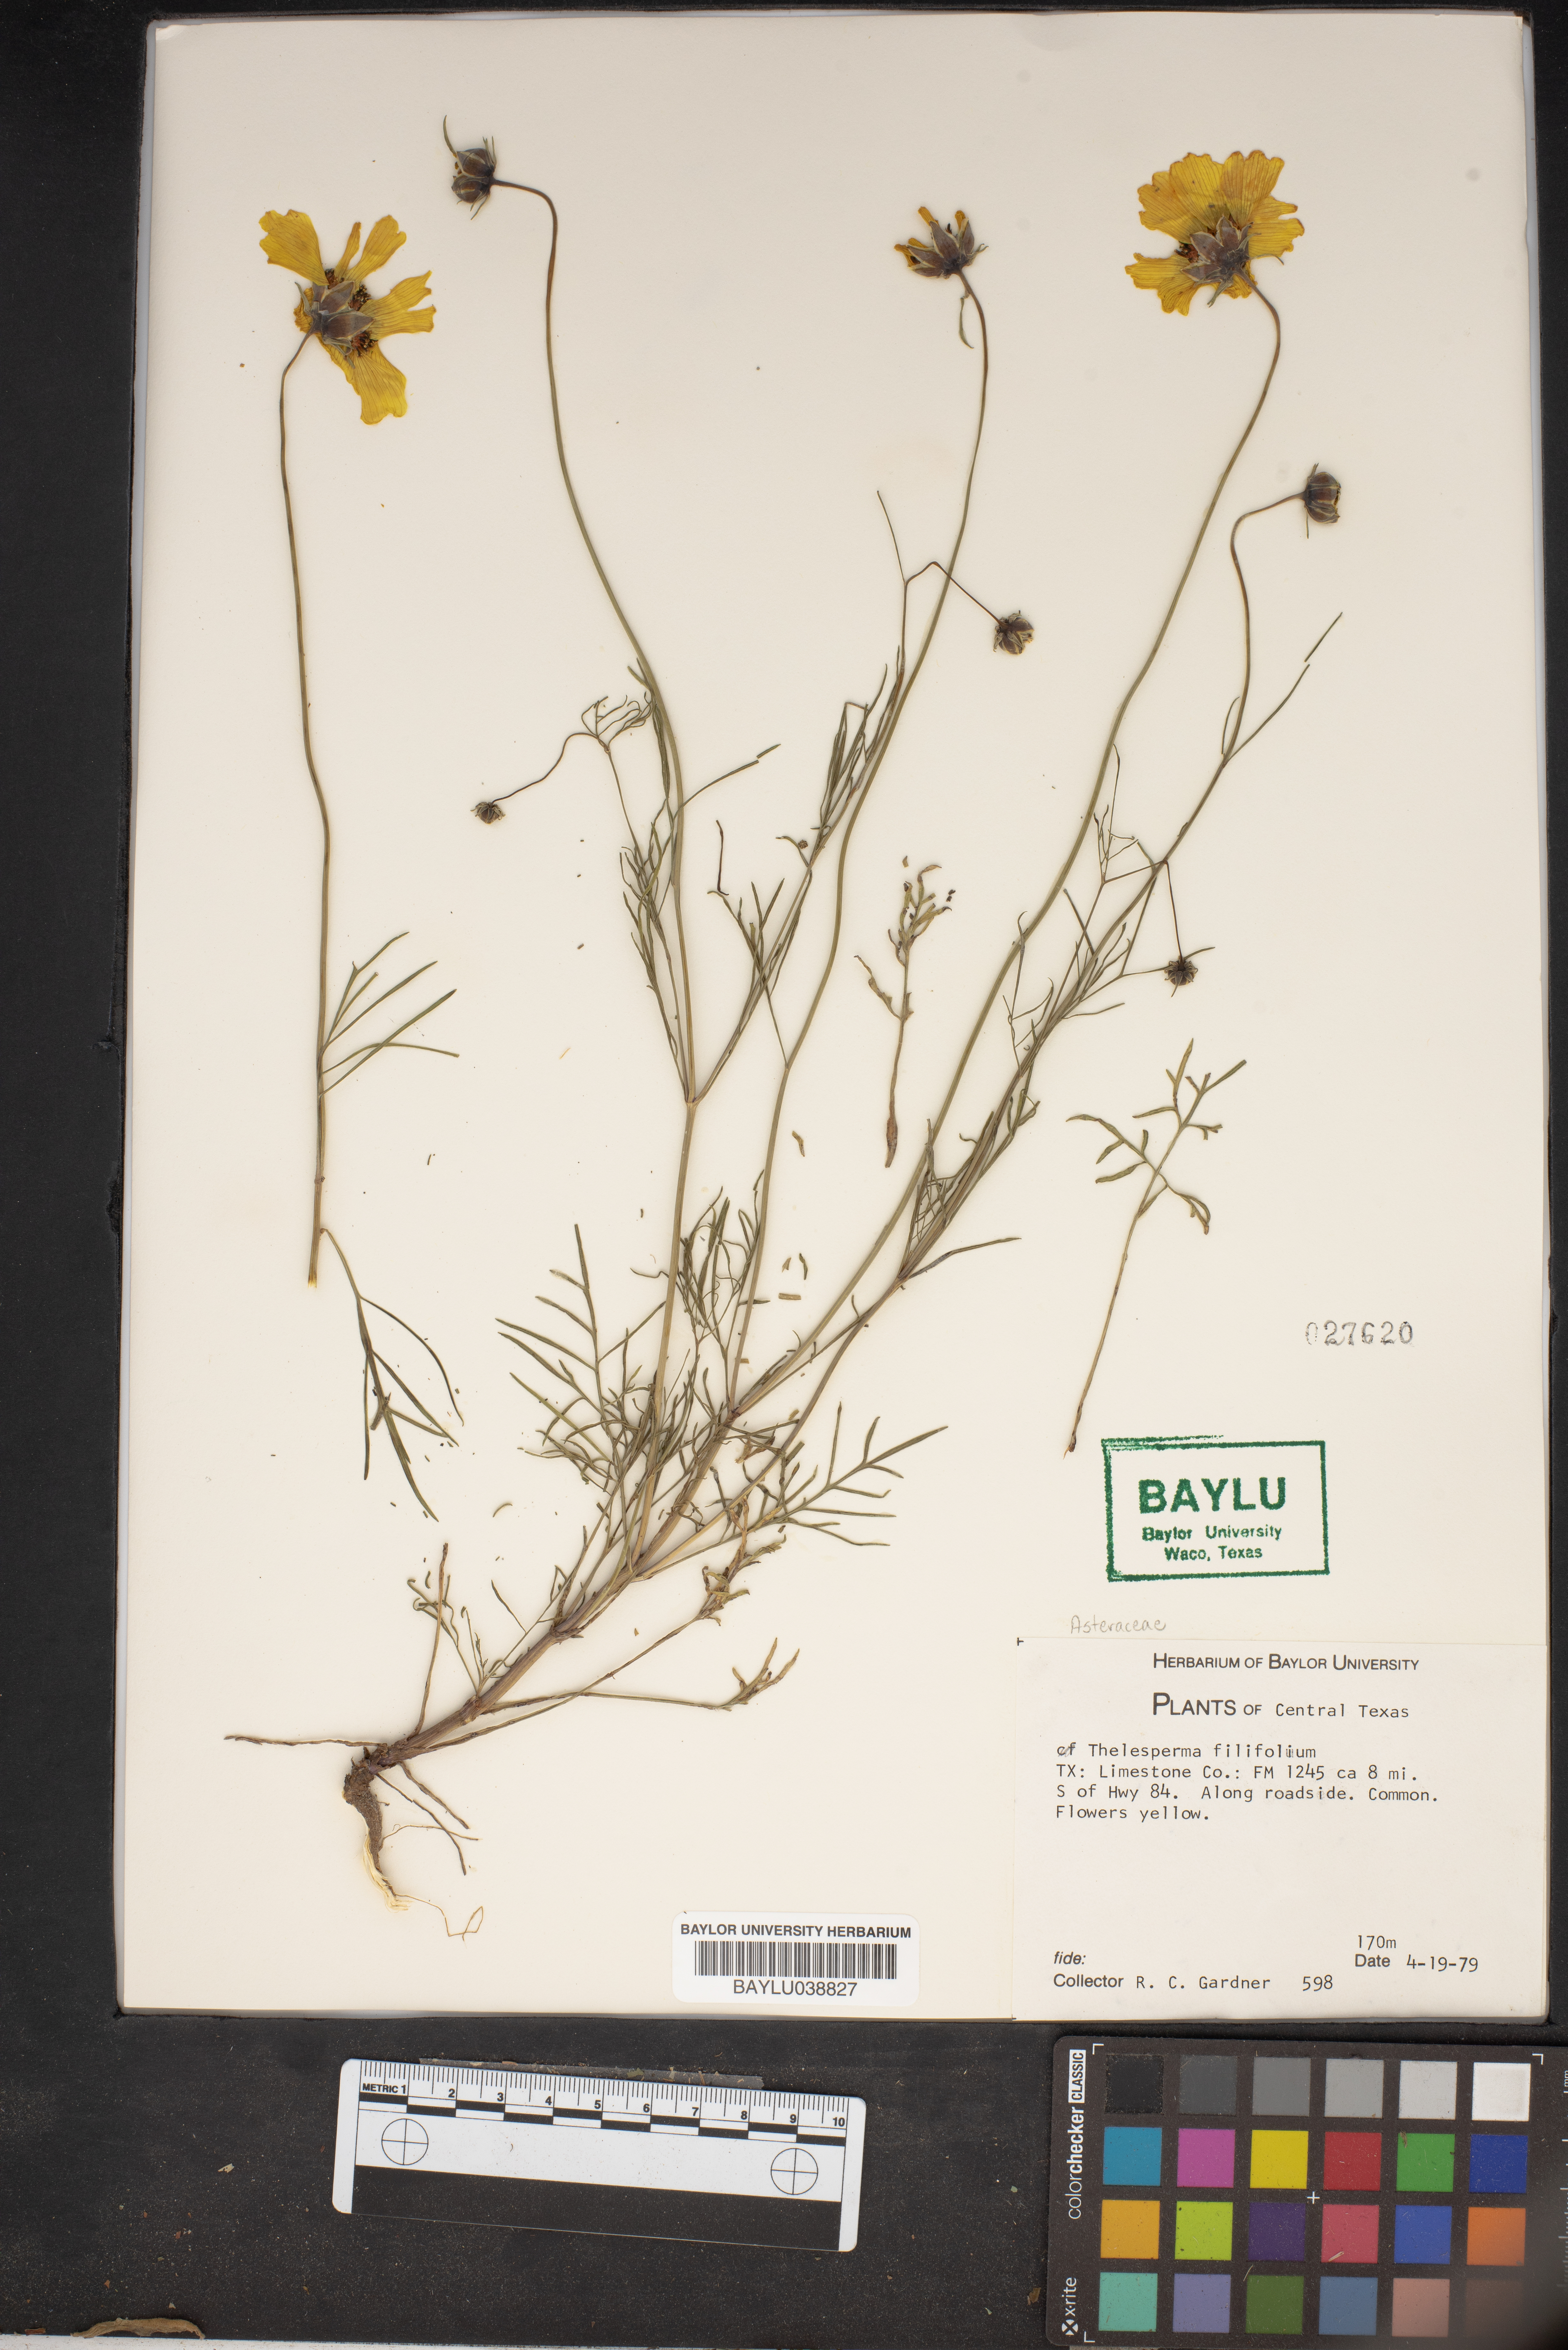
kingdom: Plantae
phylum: Tracheophyta
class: Magnoliopsida
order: Asterales
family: Asteraceae
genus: Thelesperma
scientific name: Thelesperma filifolium
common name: Stiff greenthread
